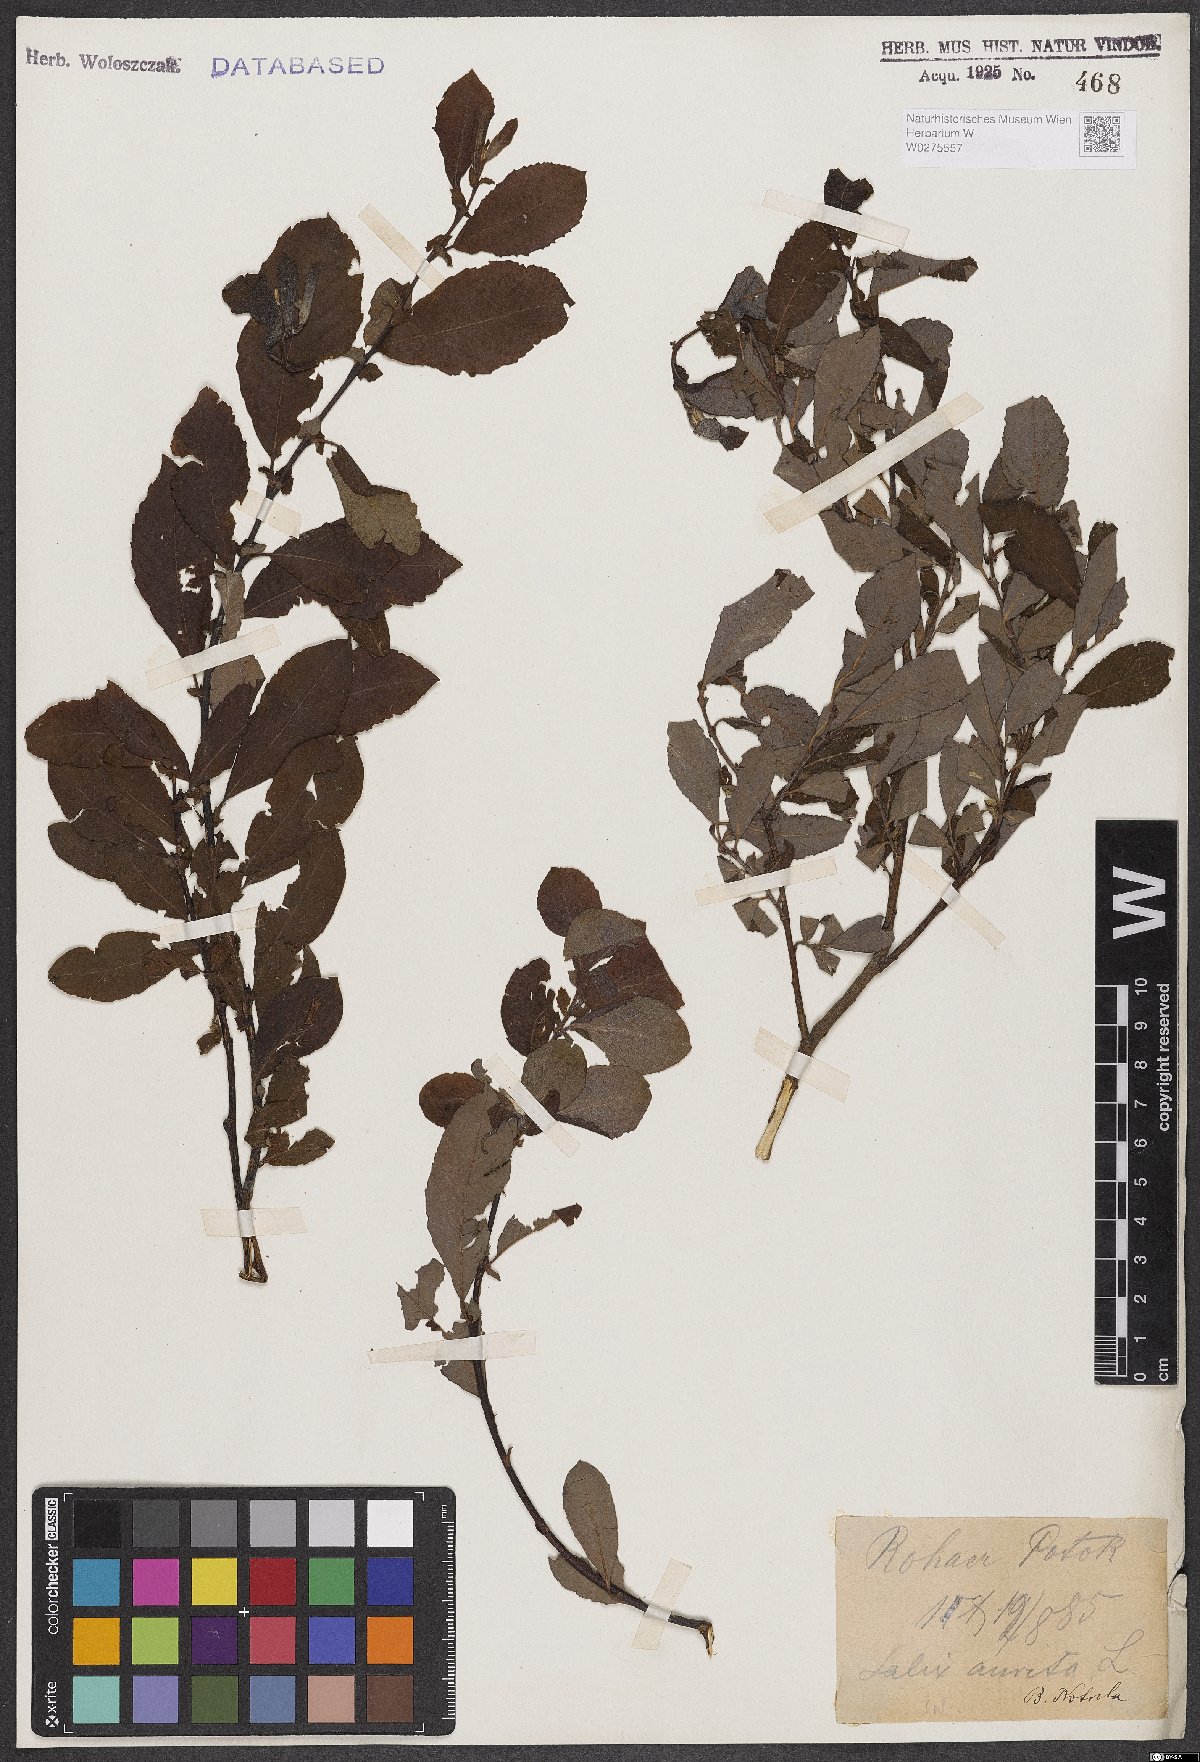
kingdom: Plantae
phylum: Tracheophyta
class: Magnoliopsida
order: Malpighiales
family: Salicaceae
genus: Salix
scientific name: Salix aurita
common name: Eared willow
